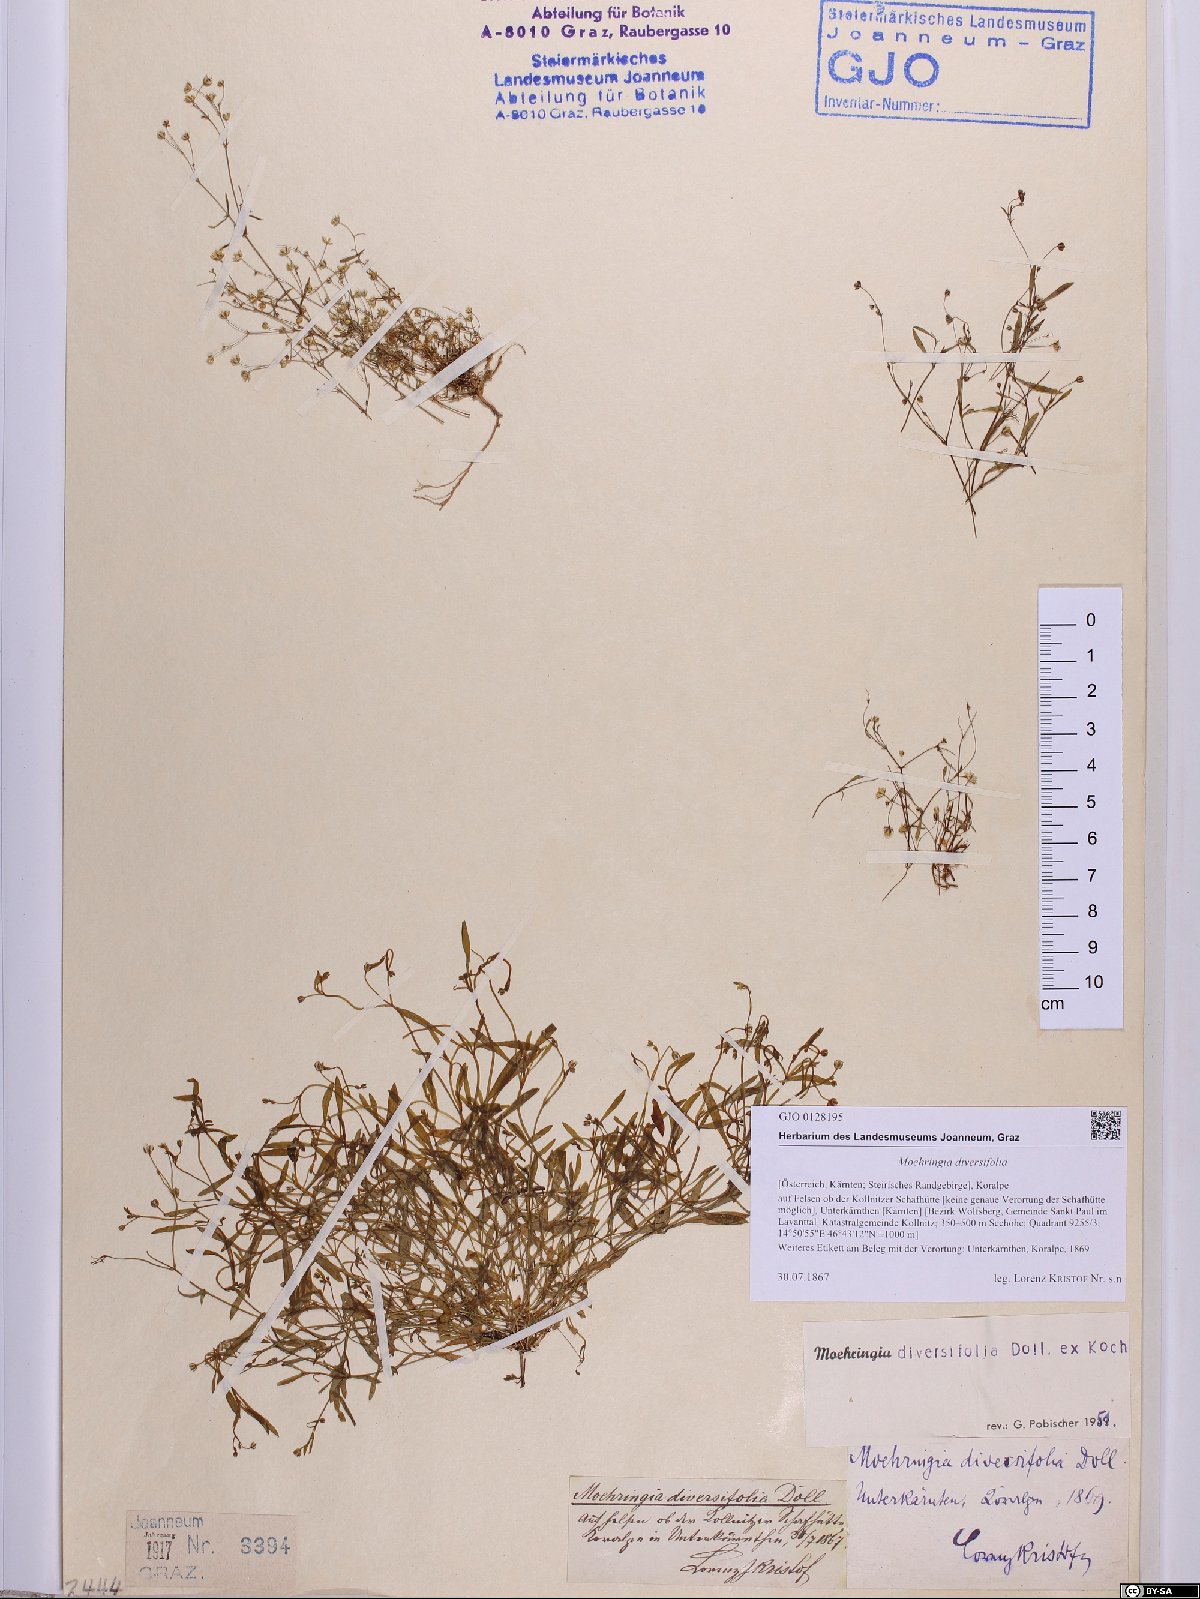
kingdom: Plantae
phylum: Tracheophyta
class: Magnoliopsida
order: Caryophyllales
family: Caryophyllaceae
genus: Moehringia
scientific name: Moehringia diversifolia
